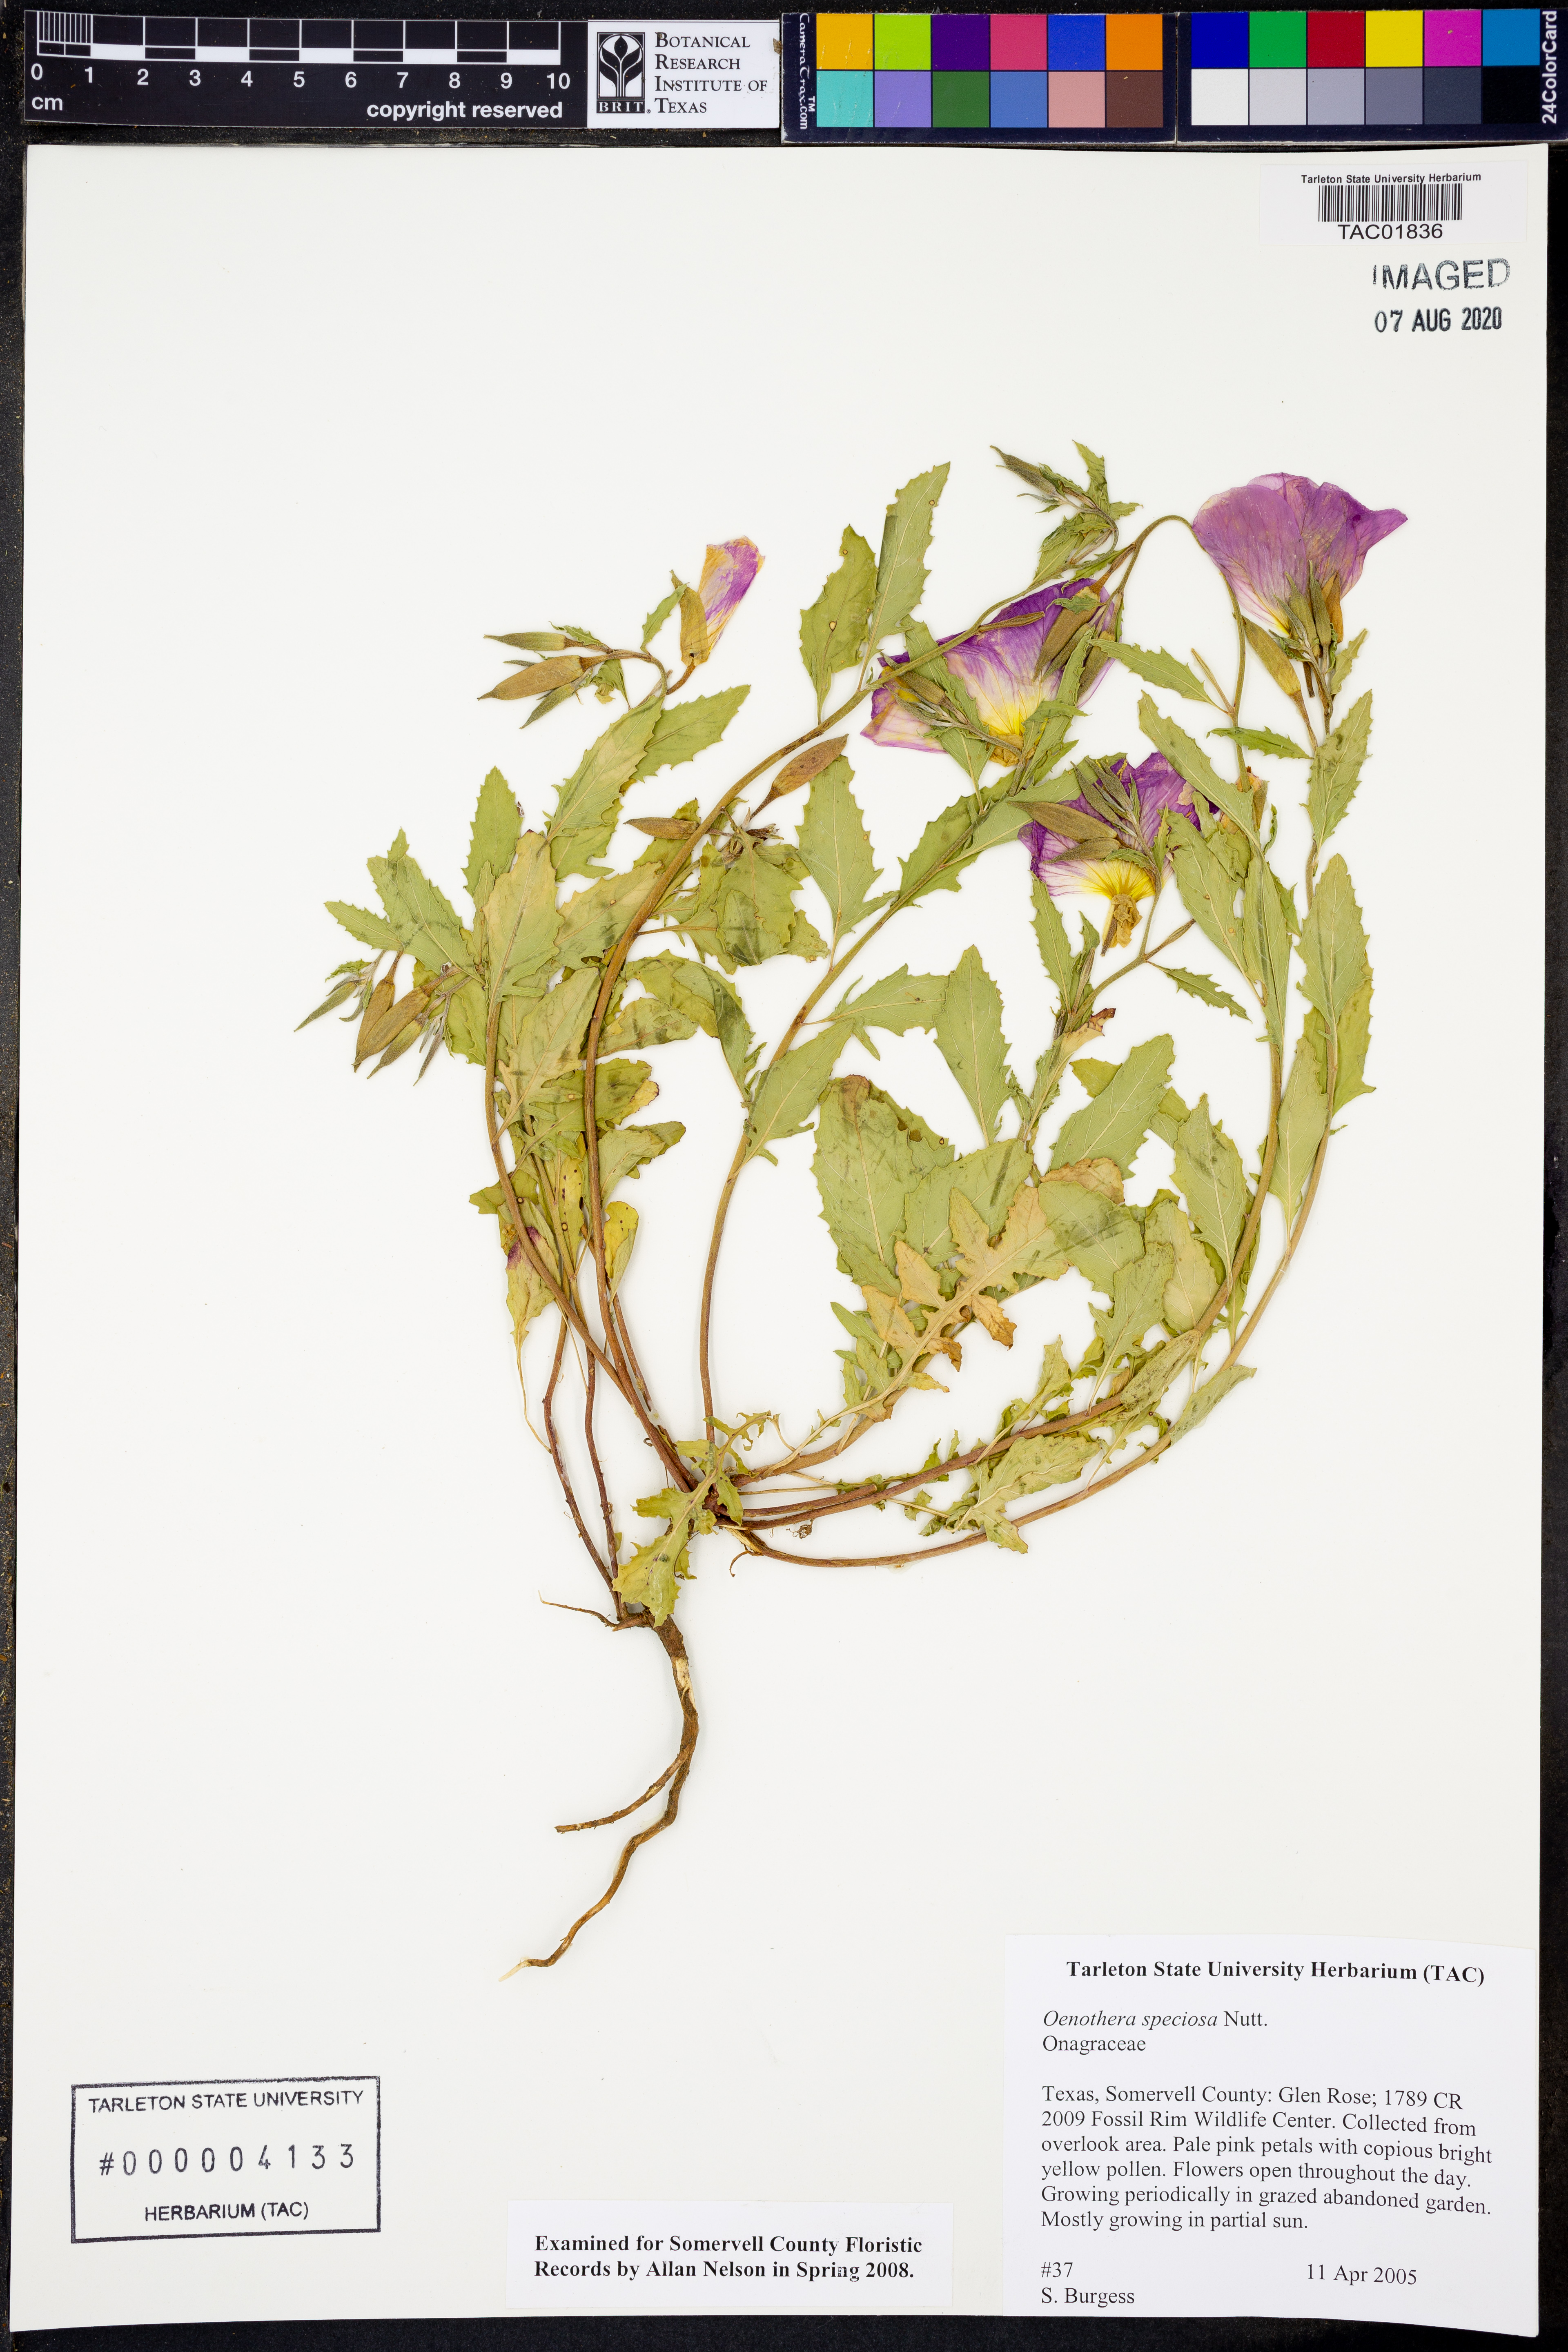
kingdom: Plantae
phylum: Tracheophyta
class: Magnoliopsida
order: Myrtales
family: Onagraceae
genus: Oenothera
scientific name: Oenothera speciosa
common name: White evening-primrose
